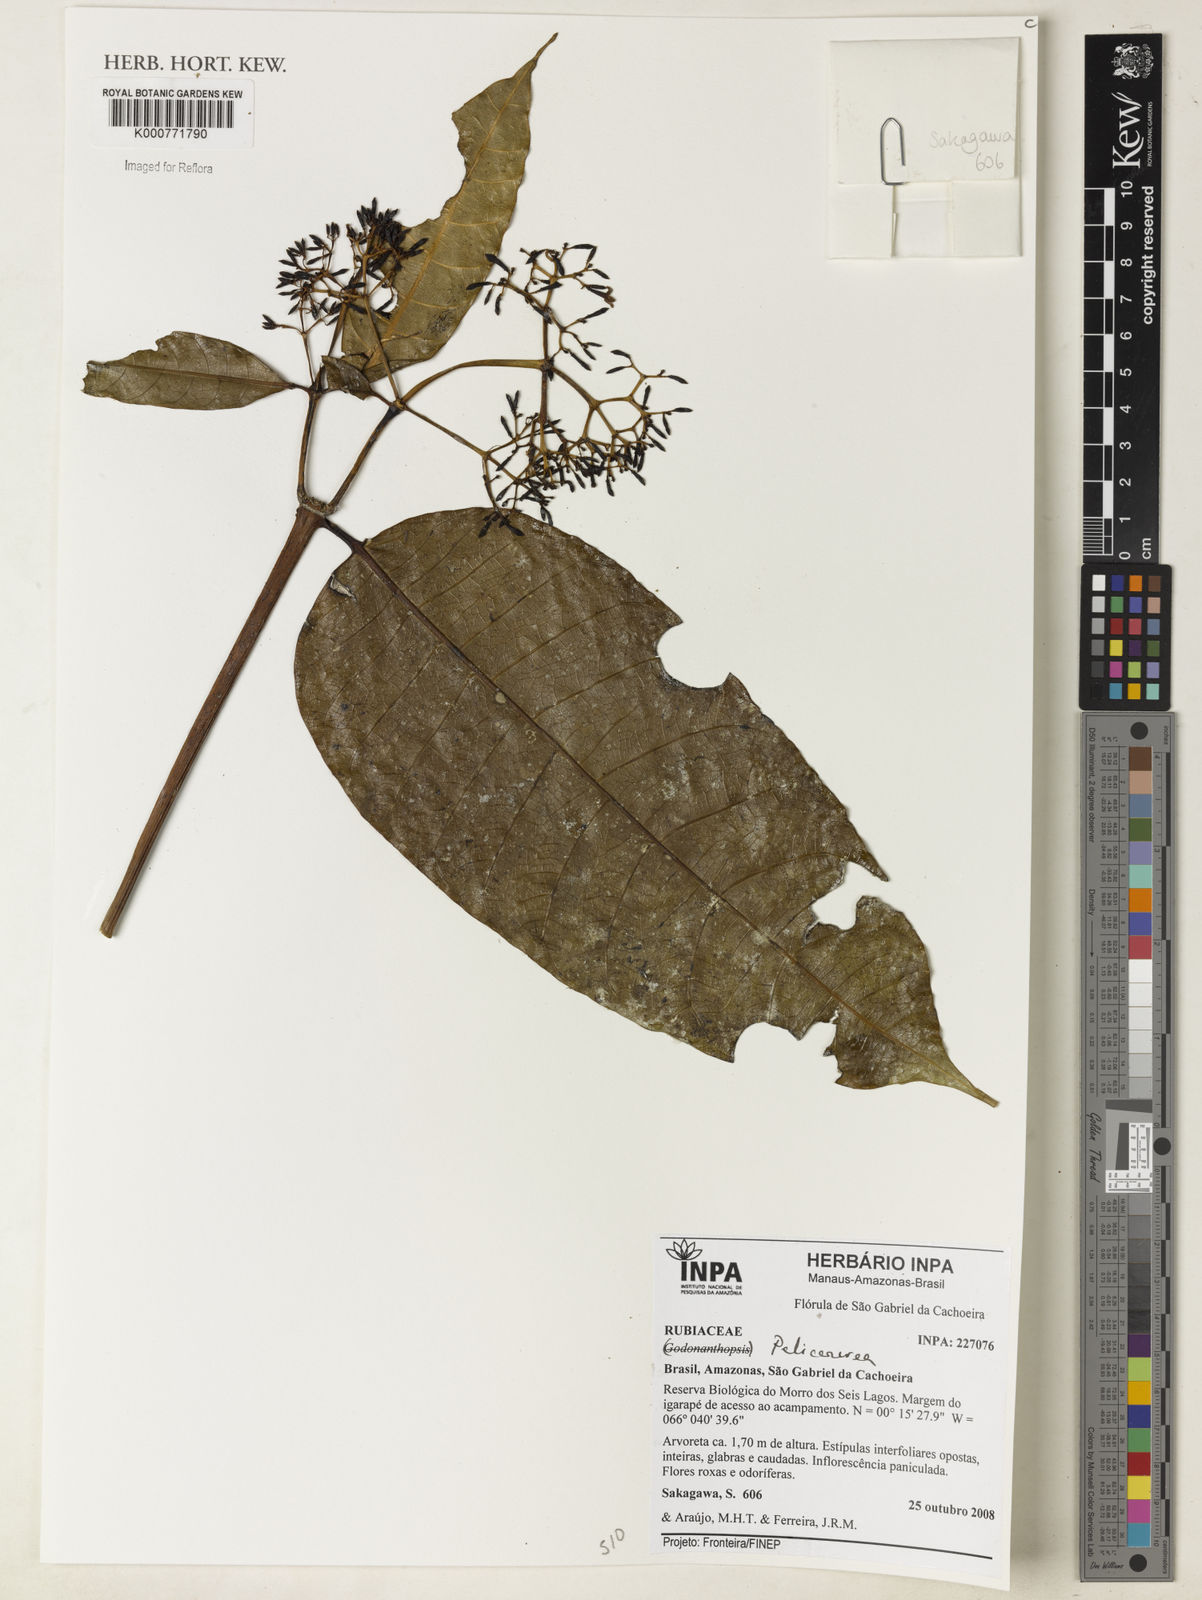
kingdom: Plantae
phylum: Tracheophyta
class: Magnoliopsida
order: Gentianales
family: Rubiaceae
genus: Palicourea
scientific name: Palicourea
